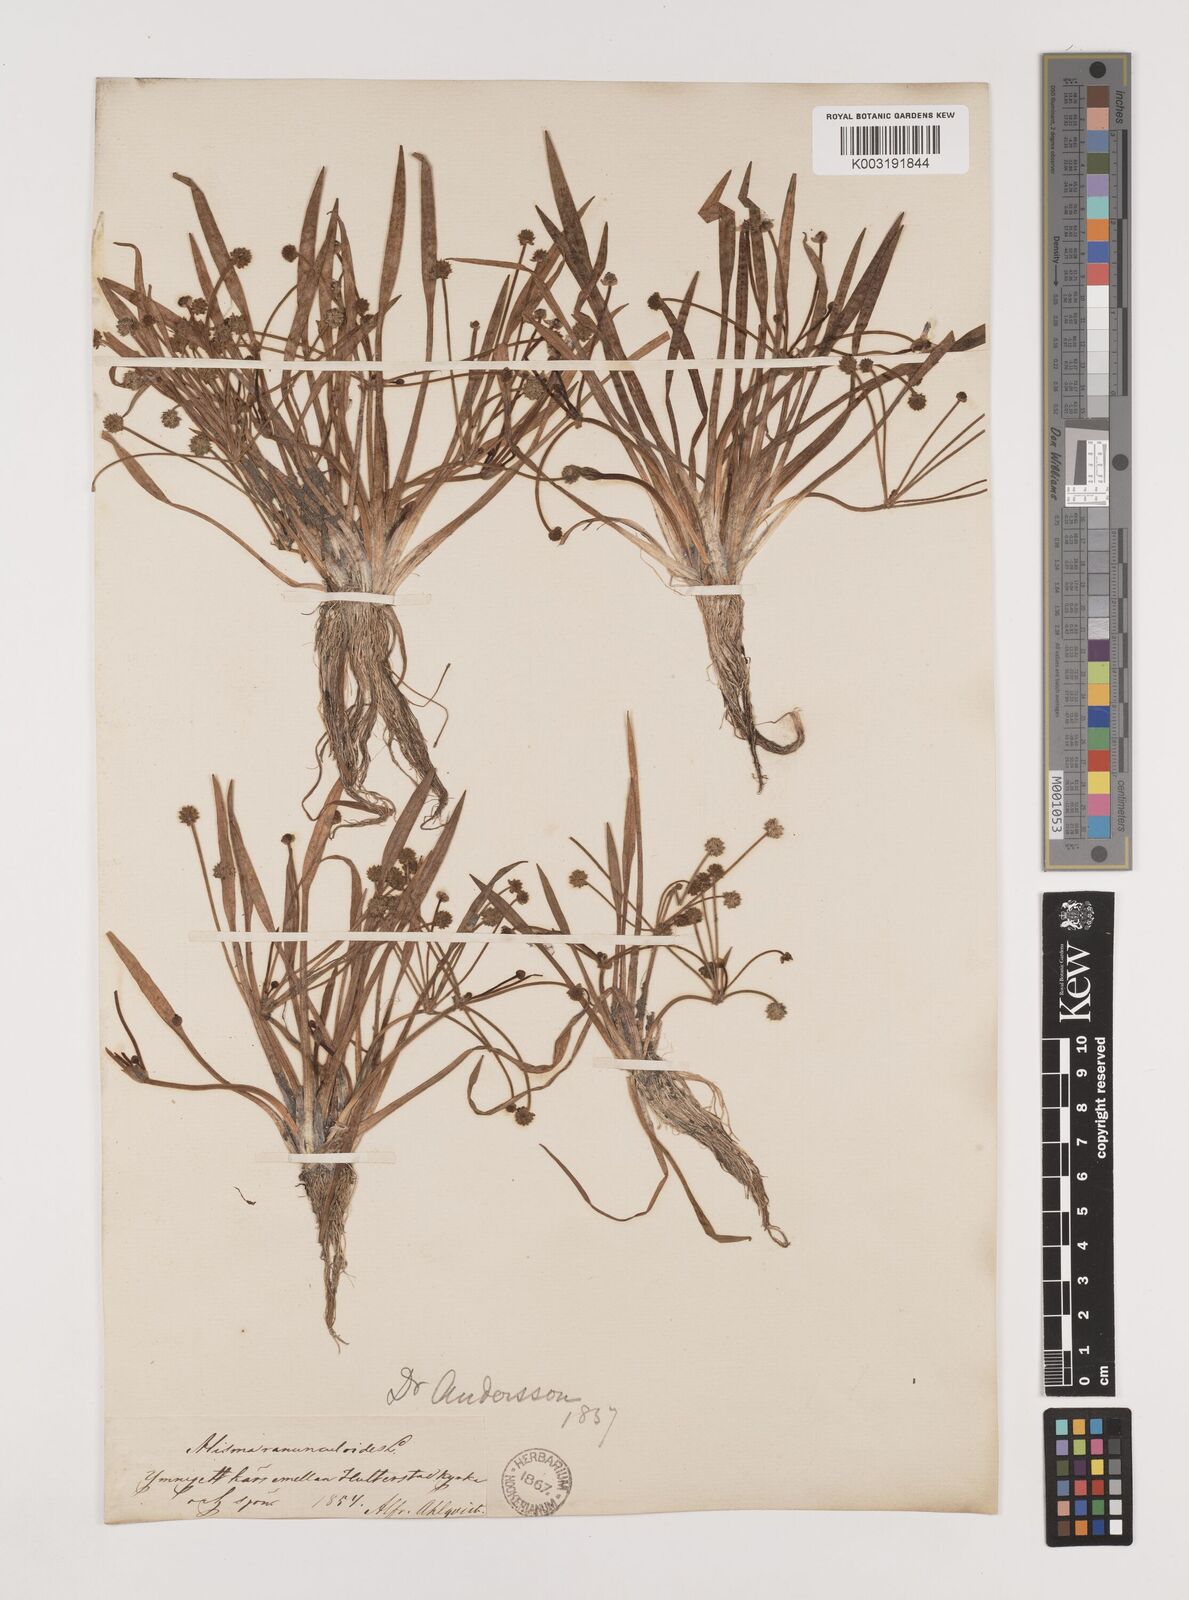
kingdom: Plantae
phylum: Tracheophyta
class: Liliopsida
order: Alismatales
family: Alismataceae
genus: Baldellia
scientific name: Baldellia ranunculoides
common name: Lesser water-plantain
